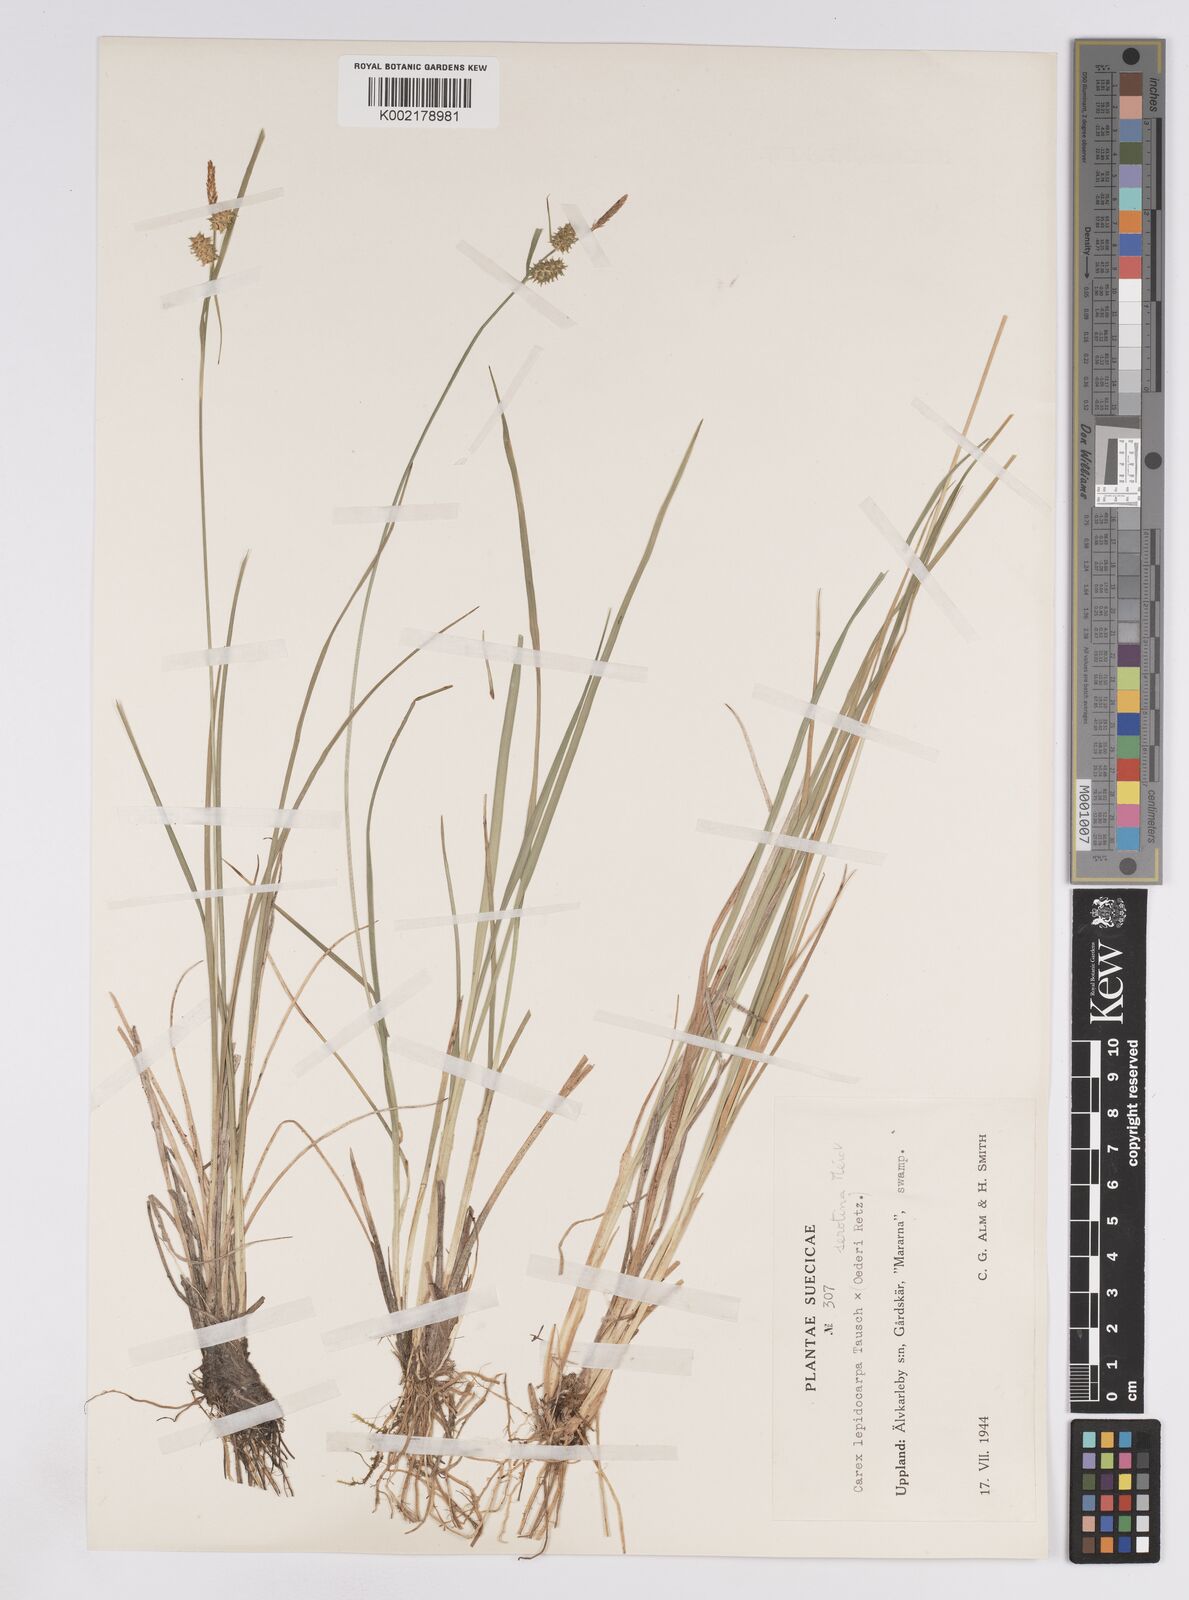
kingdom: Plantae
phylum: Tracheophyta
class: Liliopsida
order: Poales
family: Cyperaceae
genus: Carex
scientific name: Carex lepidocarpa
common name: Long-stalked yellow-sedge
